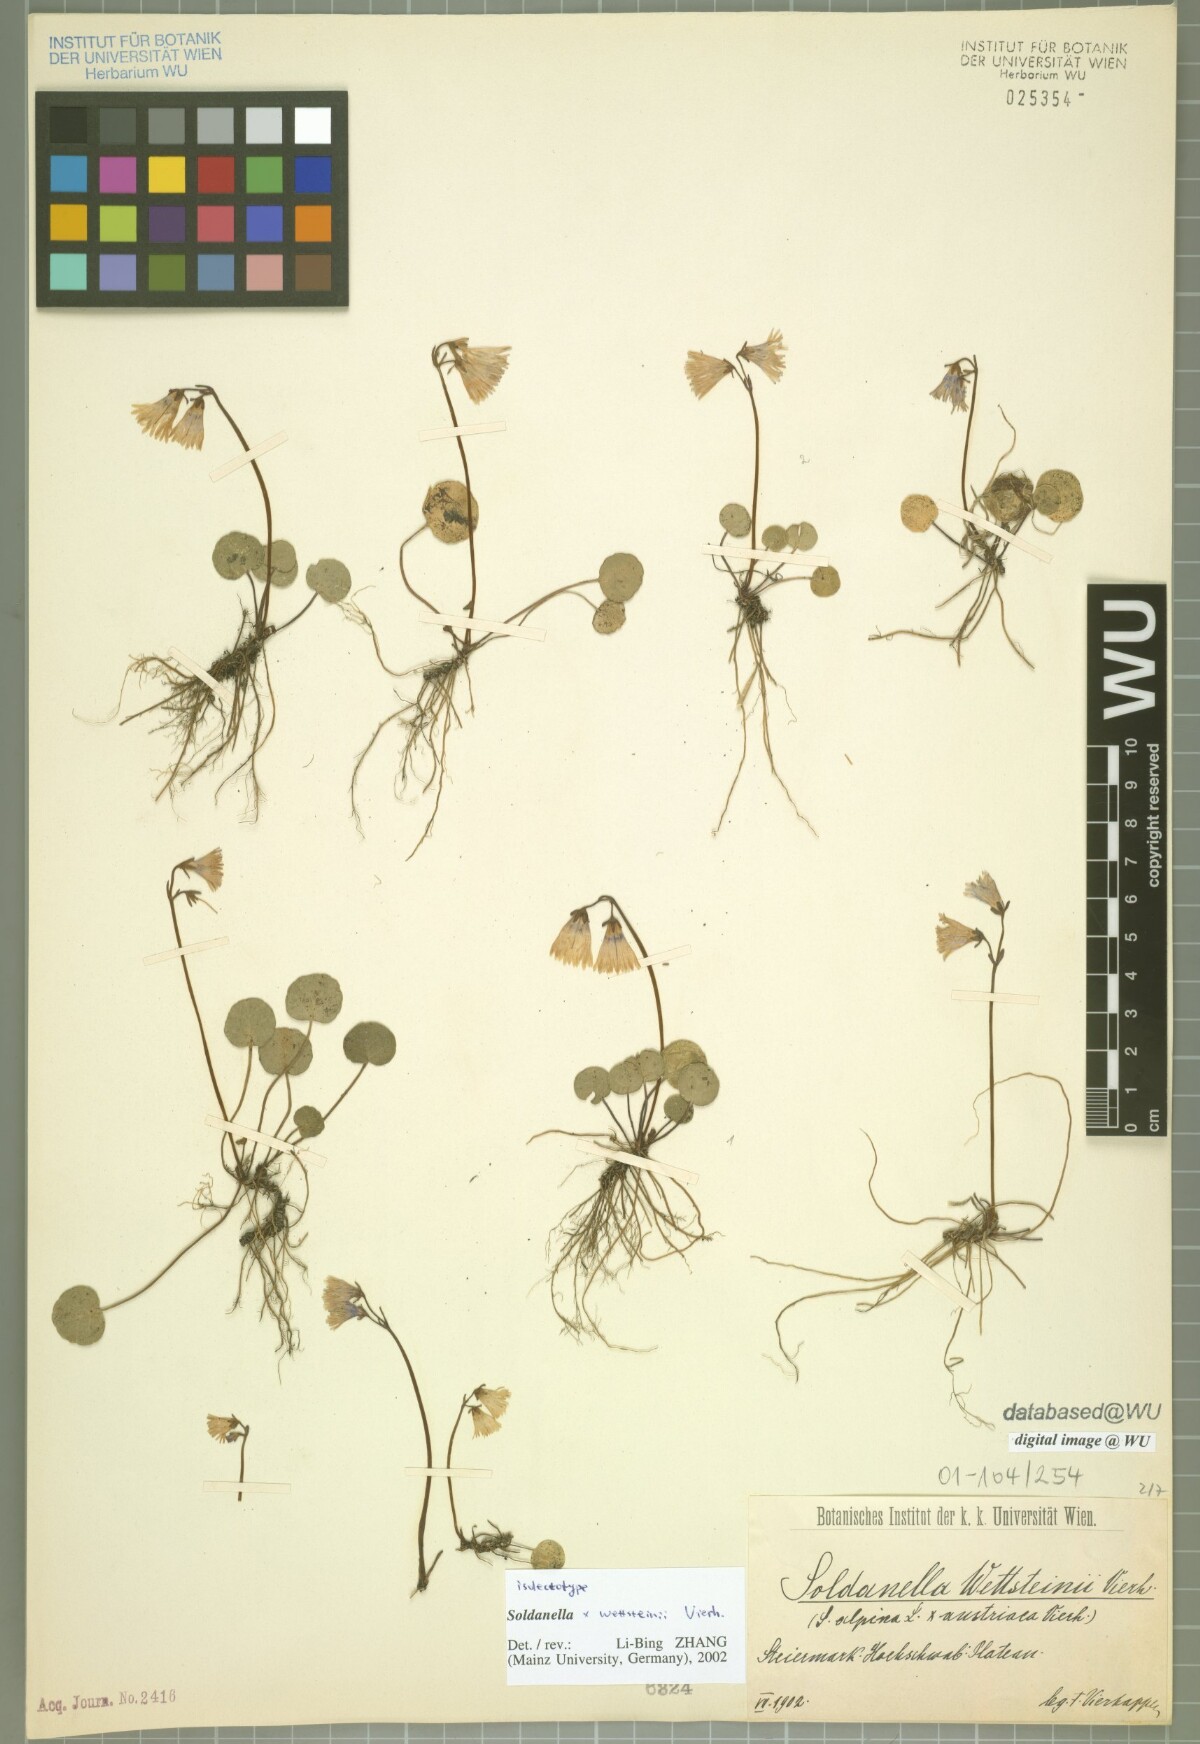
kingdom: Plantae
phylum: Tracheophyta
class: Magnoliopsida
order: Ericales
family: Primulaceae
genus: Soldanella
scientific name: Soldanella wettsteinii
